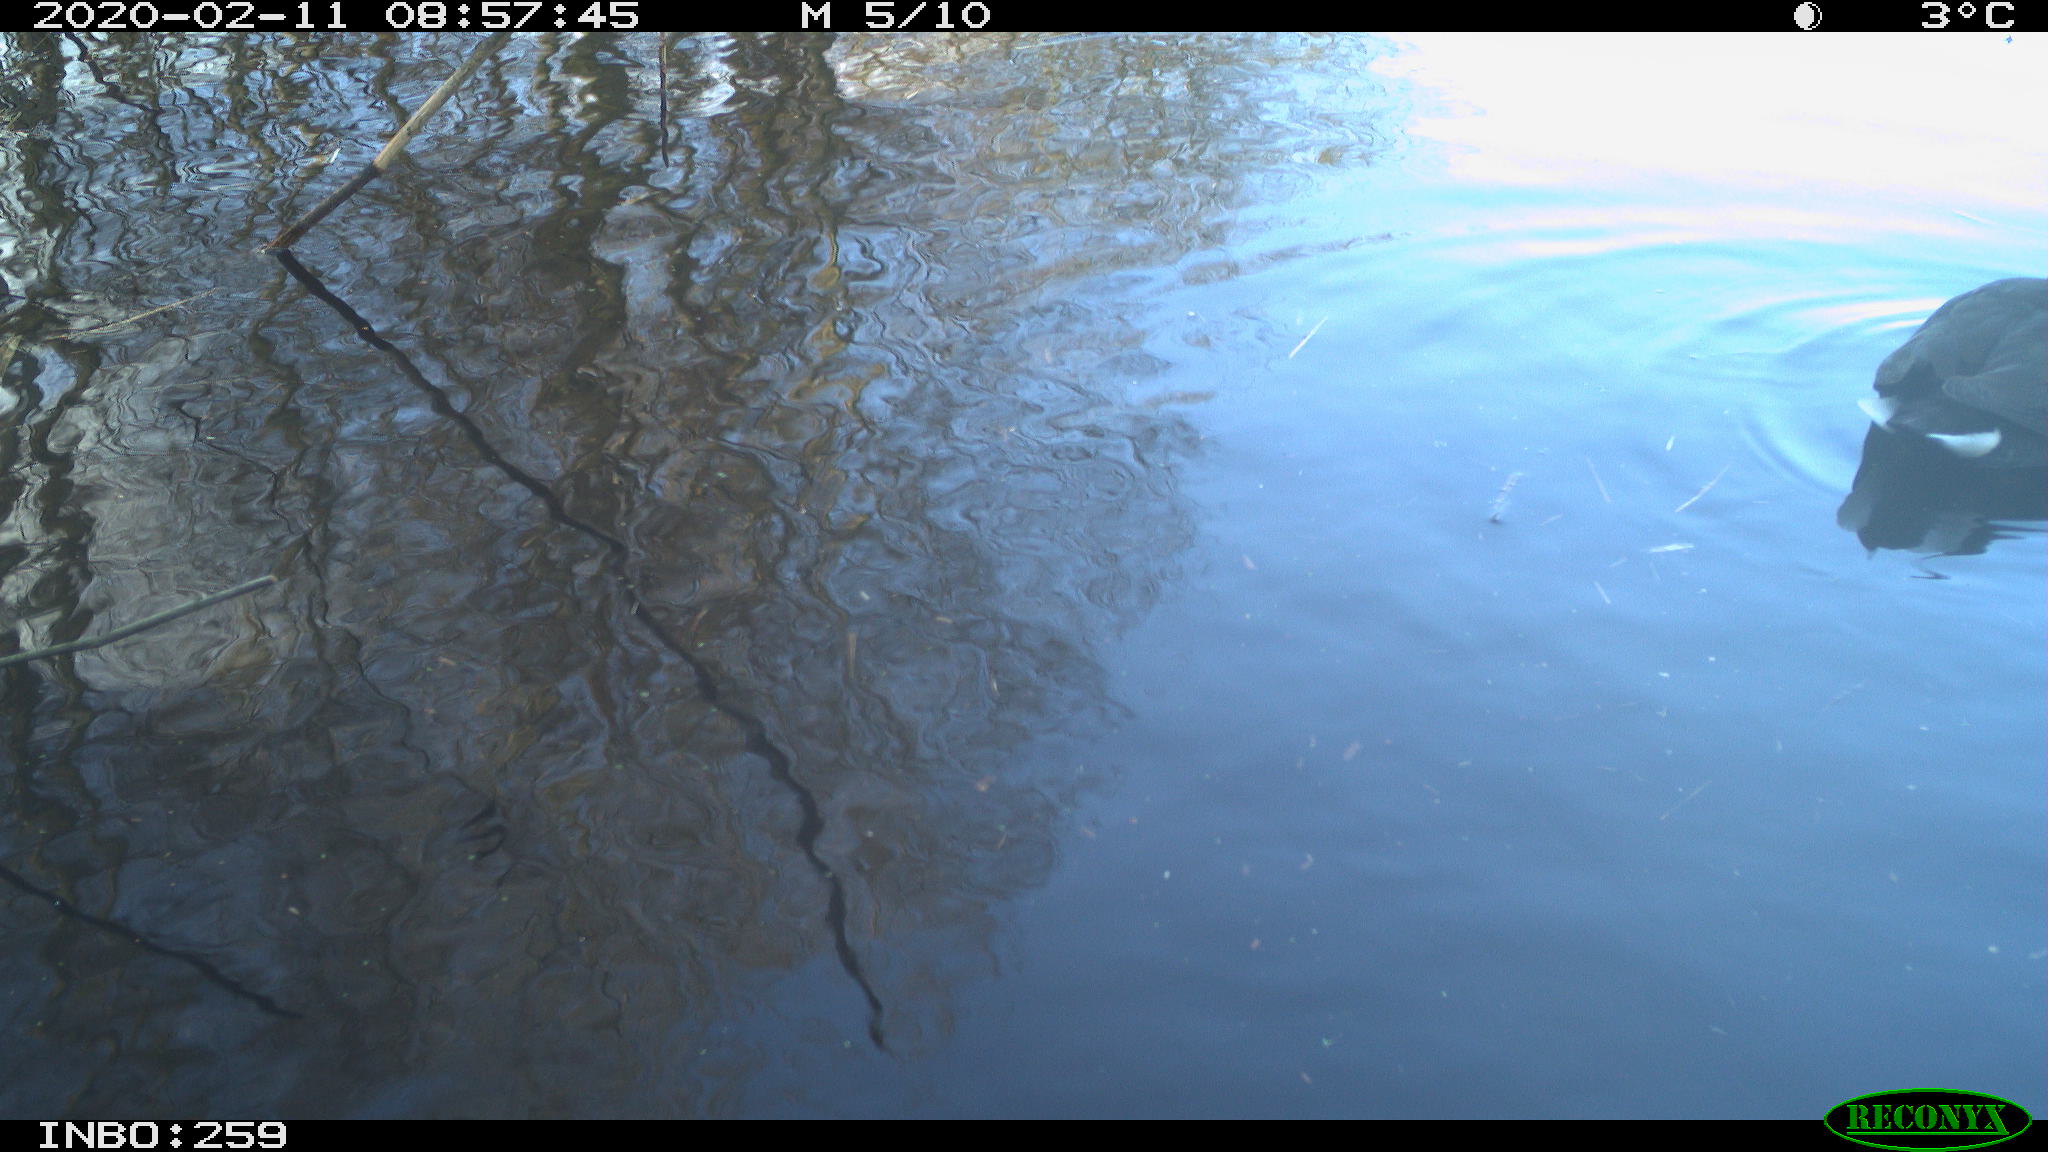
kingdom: Animalia
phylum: Chordata
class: Aves
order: Gruiformes
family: Rallidae
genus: Gallinula
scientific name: Gallinula chloropus
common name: Common moorhen
